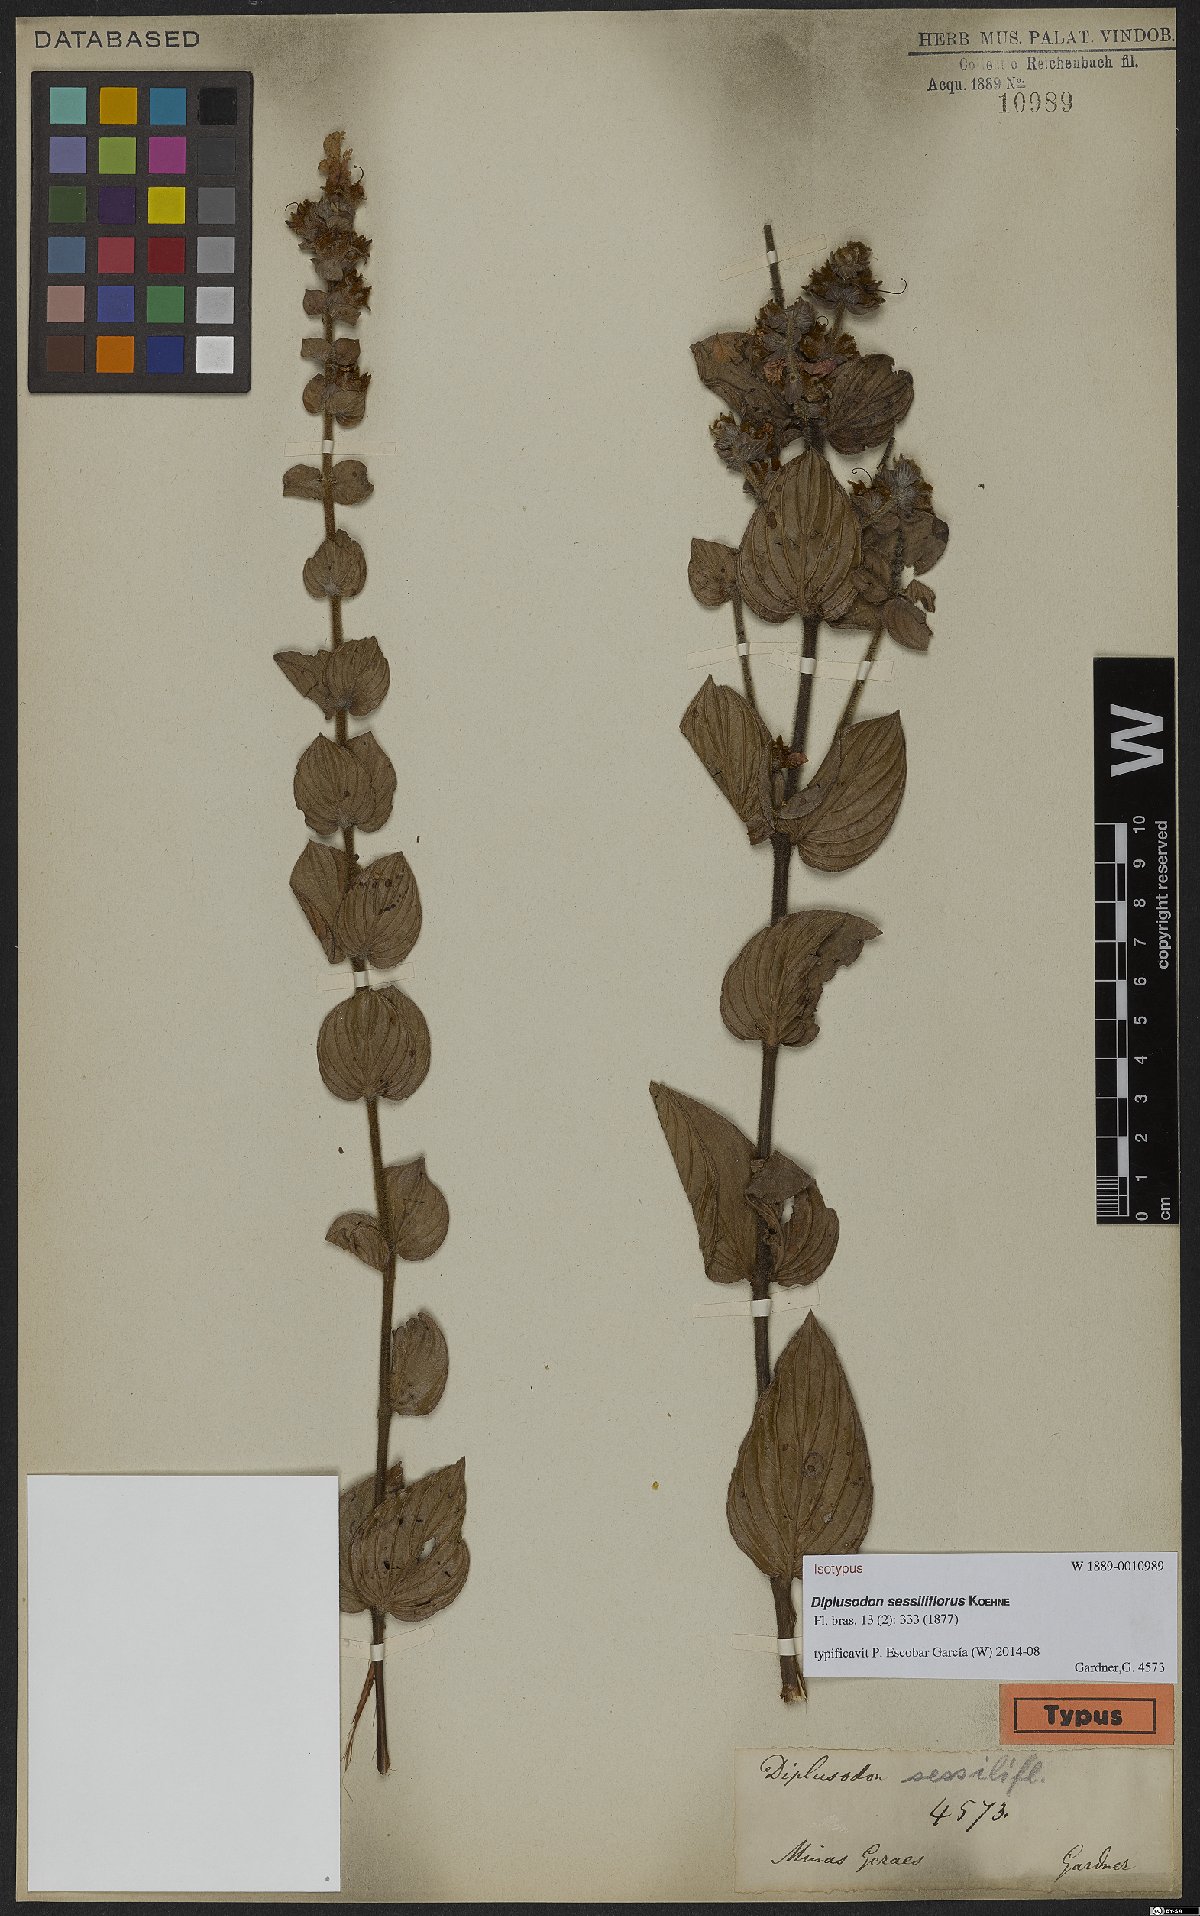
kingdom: Plantae
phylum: Tracheophyta
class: Magnoliopsida
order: Myrtales
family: Lythraceae
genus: Diplusodon
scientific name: Diplusodon sessiliflorus
